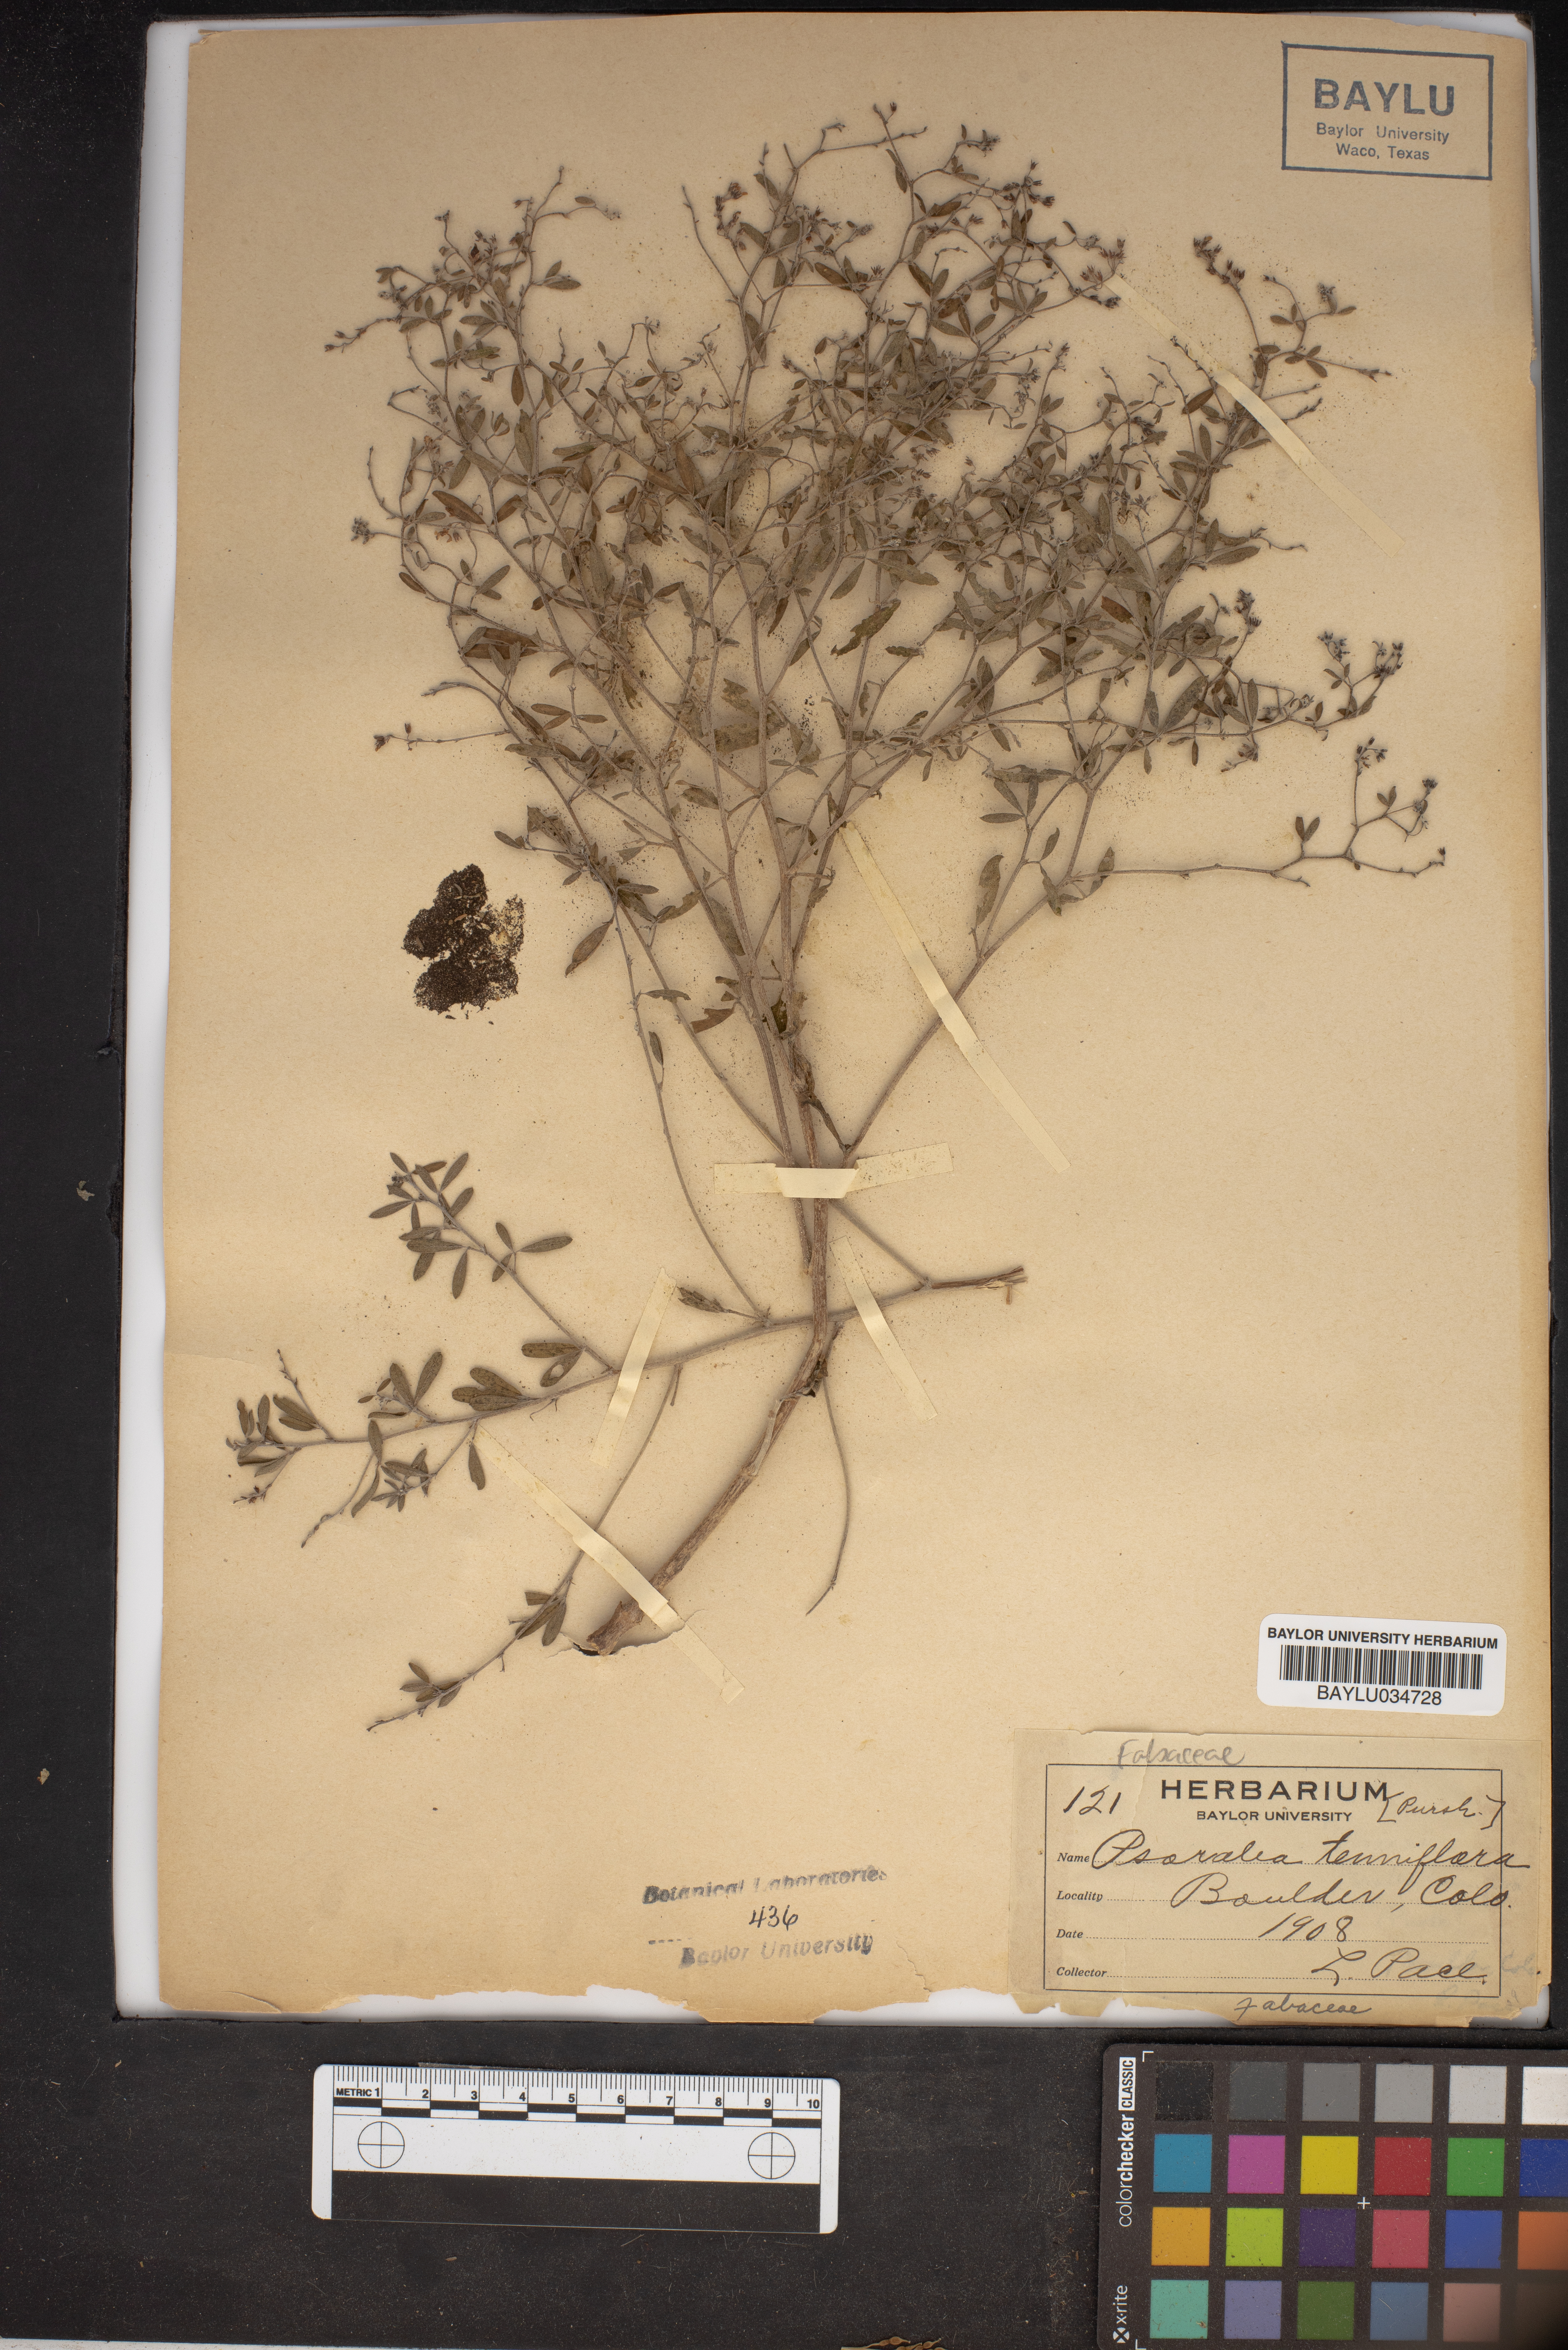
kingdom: Plantae
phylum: Tracheophyta
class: Magnoliopsida
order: Fabales
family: Fabaceae
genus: Pediomelum
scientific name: Pediomelum tenuiflorum
